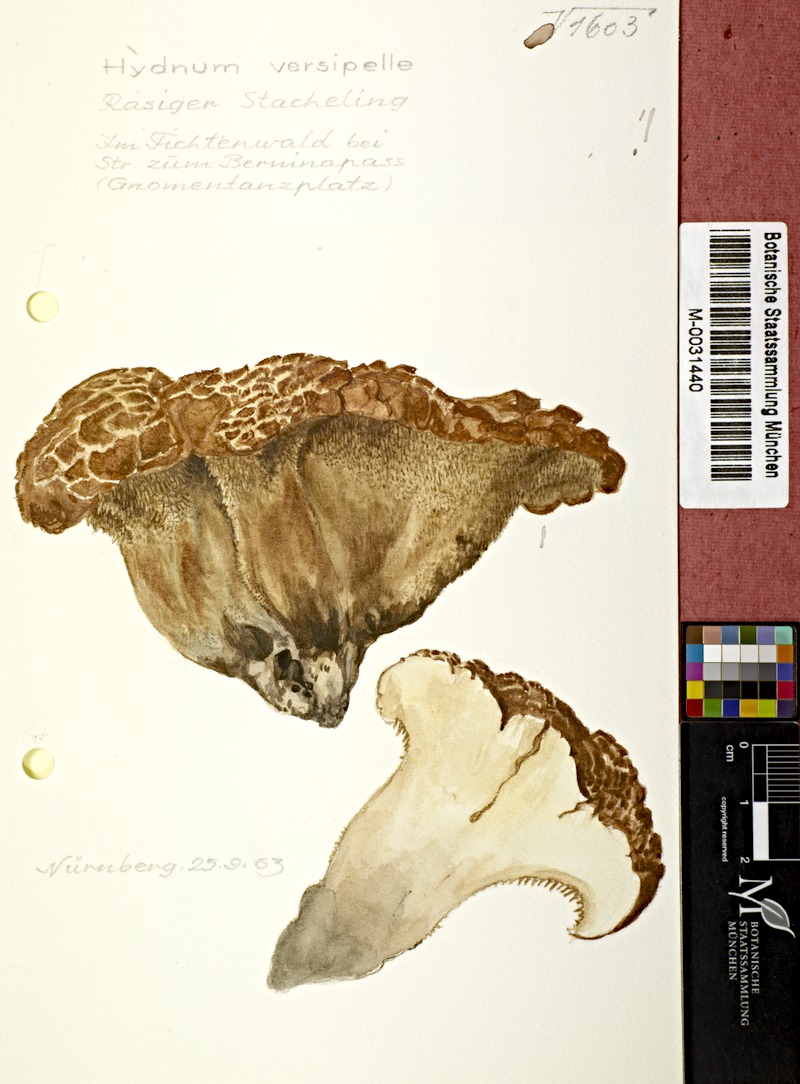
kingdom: Fungi
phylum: Basidiomycota
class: Agaricomycetes
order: Thelephorales
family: Bankeraceae
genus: Hydnellum
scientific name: Hydnellum versipelle
